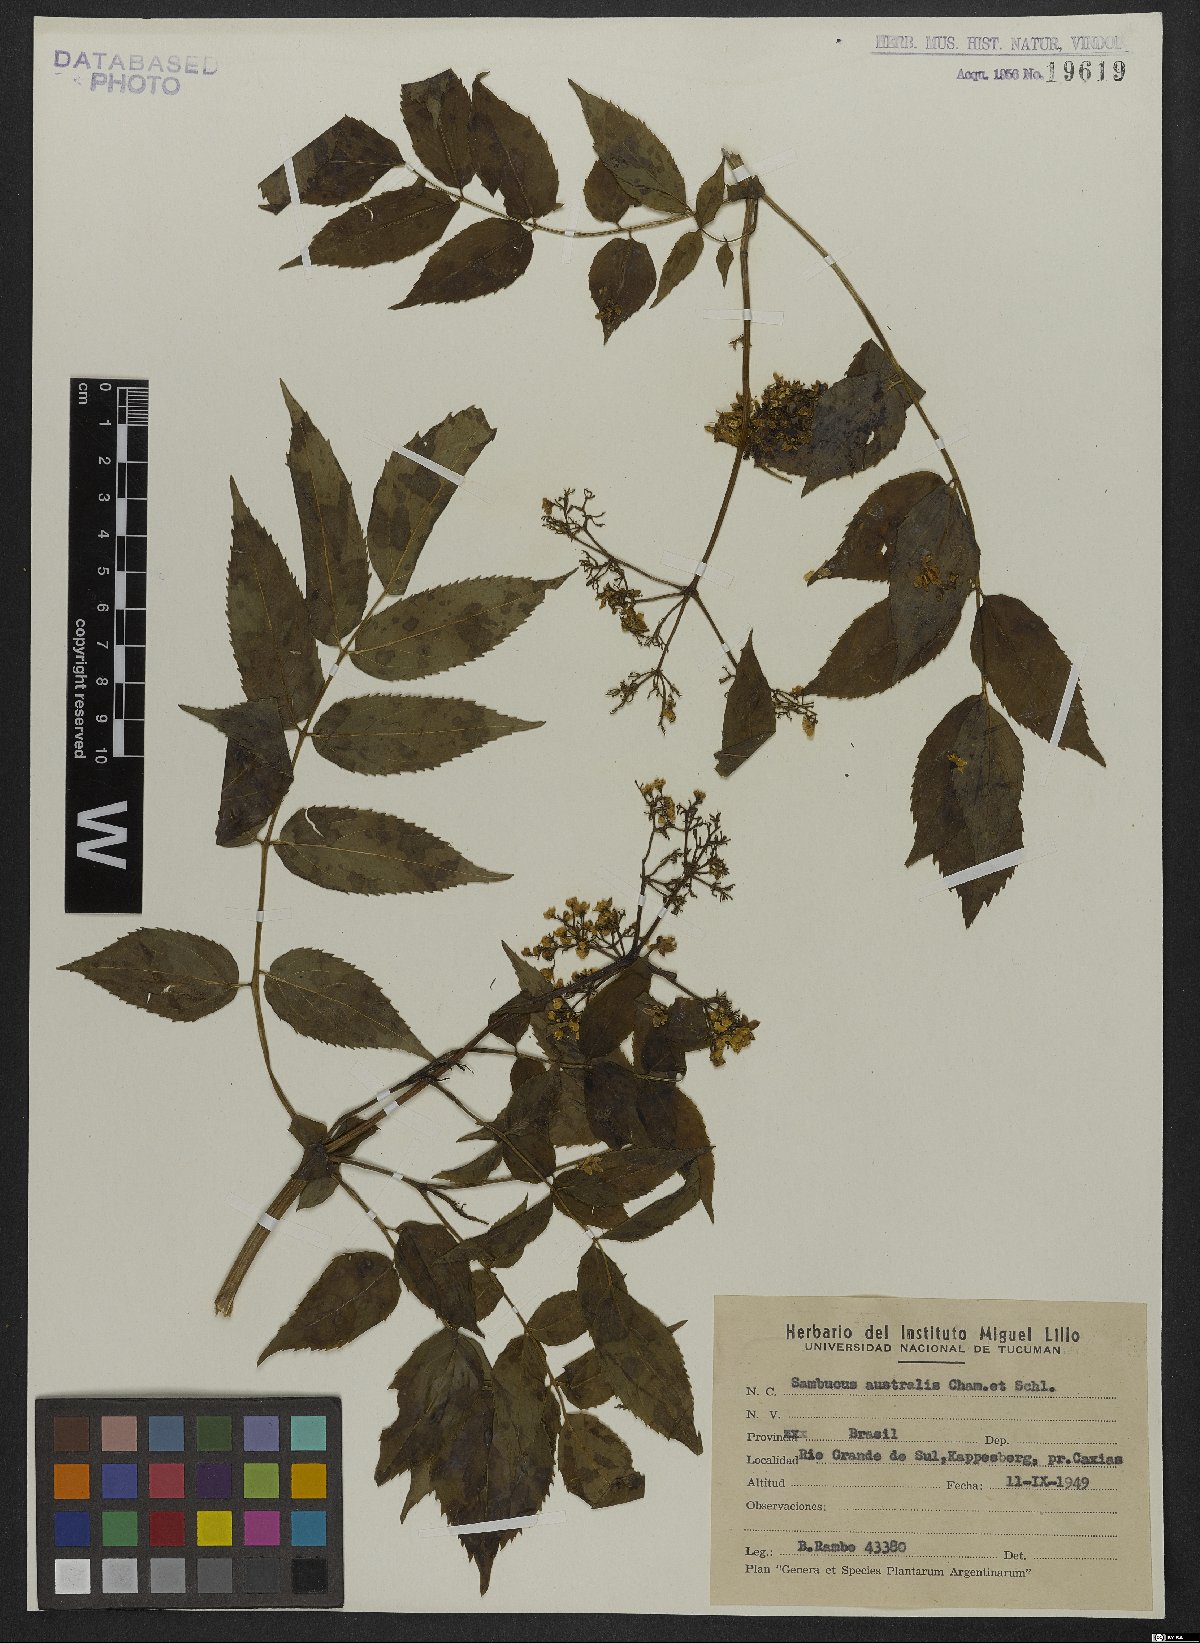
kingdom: Plantae
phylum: Tracheophyta
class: Magnoliopsida
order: Dipsacales
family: Viburnaceae
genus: Sambucus
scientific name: Sambucus australis
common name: Southern elder
